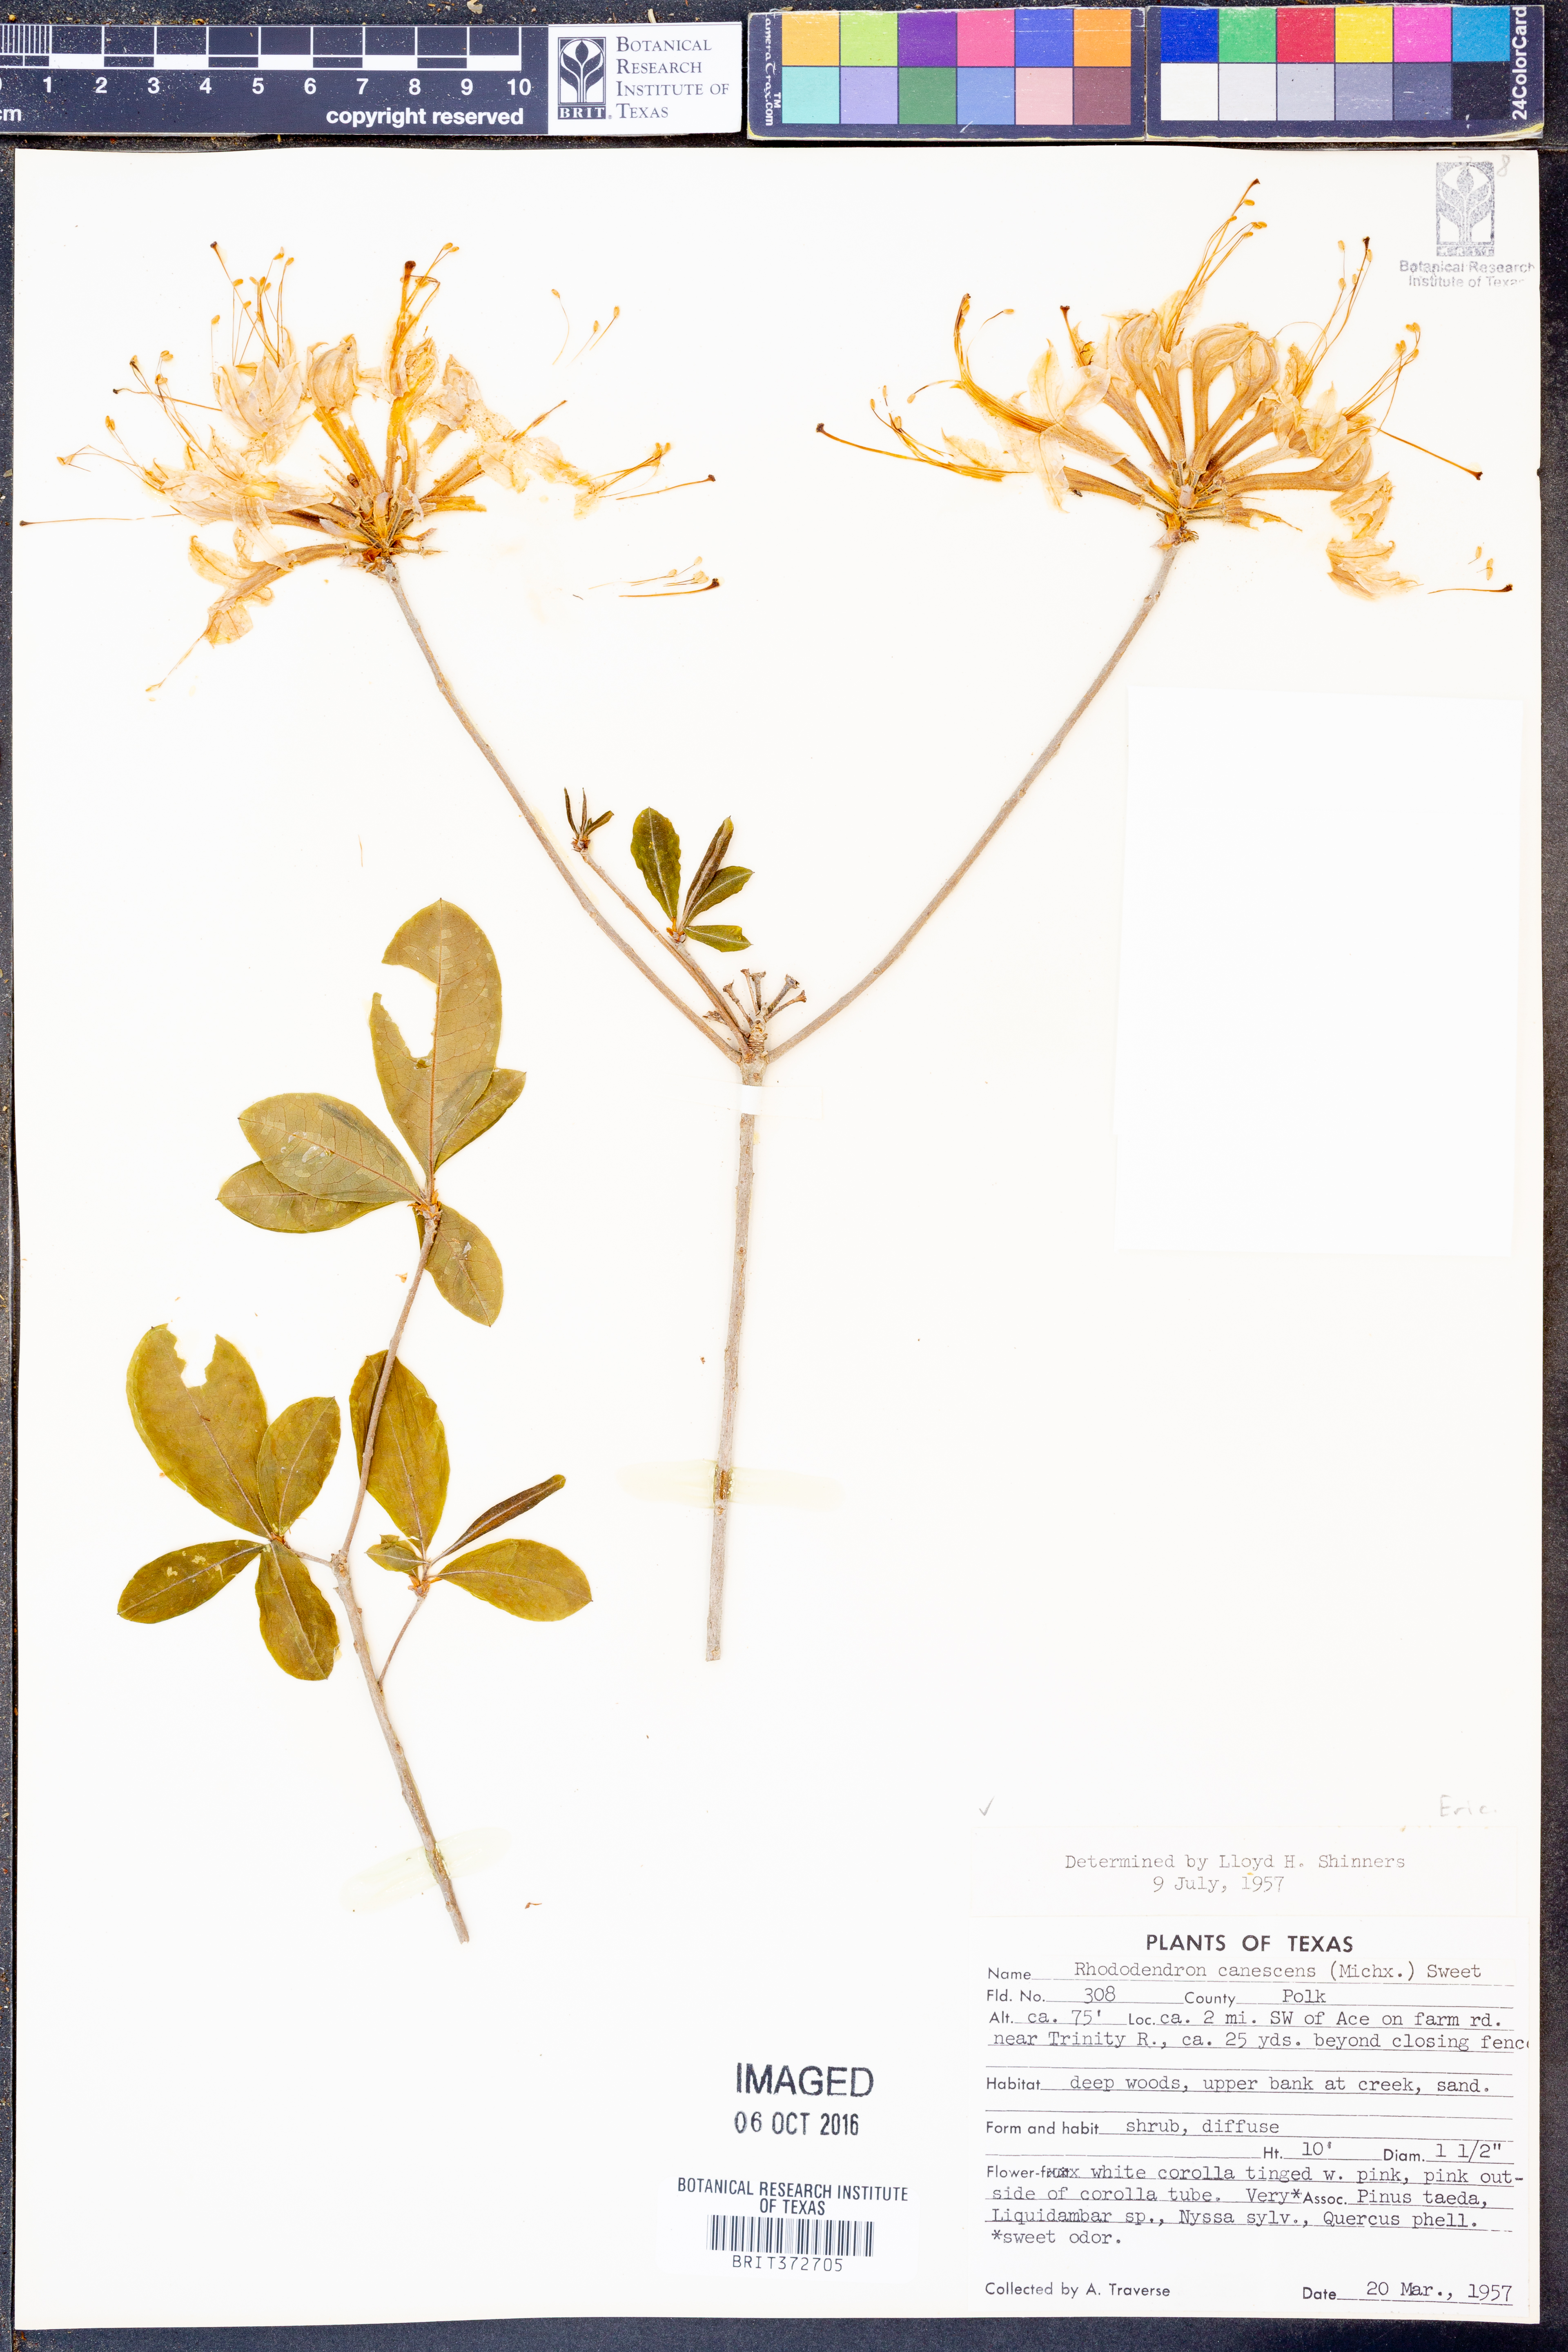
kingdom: Plantae
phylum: Tracheophyta
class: Magnoliopsida
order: Ericales
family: Ericaceae
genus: Rhododendron
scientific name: Rhododendron canescens
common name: Mountain azalea
